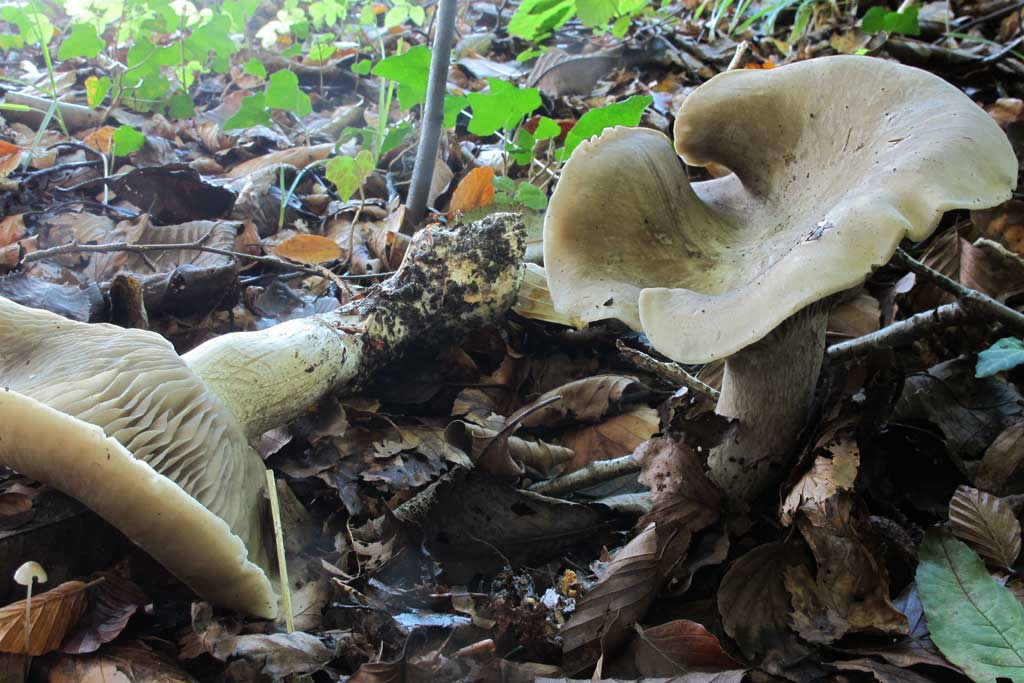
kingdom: Fungi
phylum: Basidiomycota
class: Agaricomycetes
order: Agaricales
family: Lyophyllaceae
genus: Lyophyllum
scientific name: Lyophyllum eustygium
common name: tykbladet gråblad
